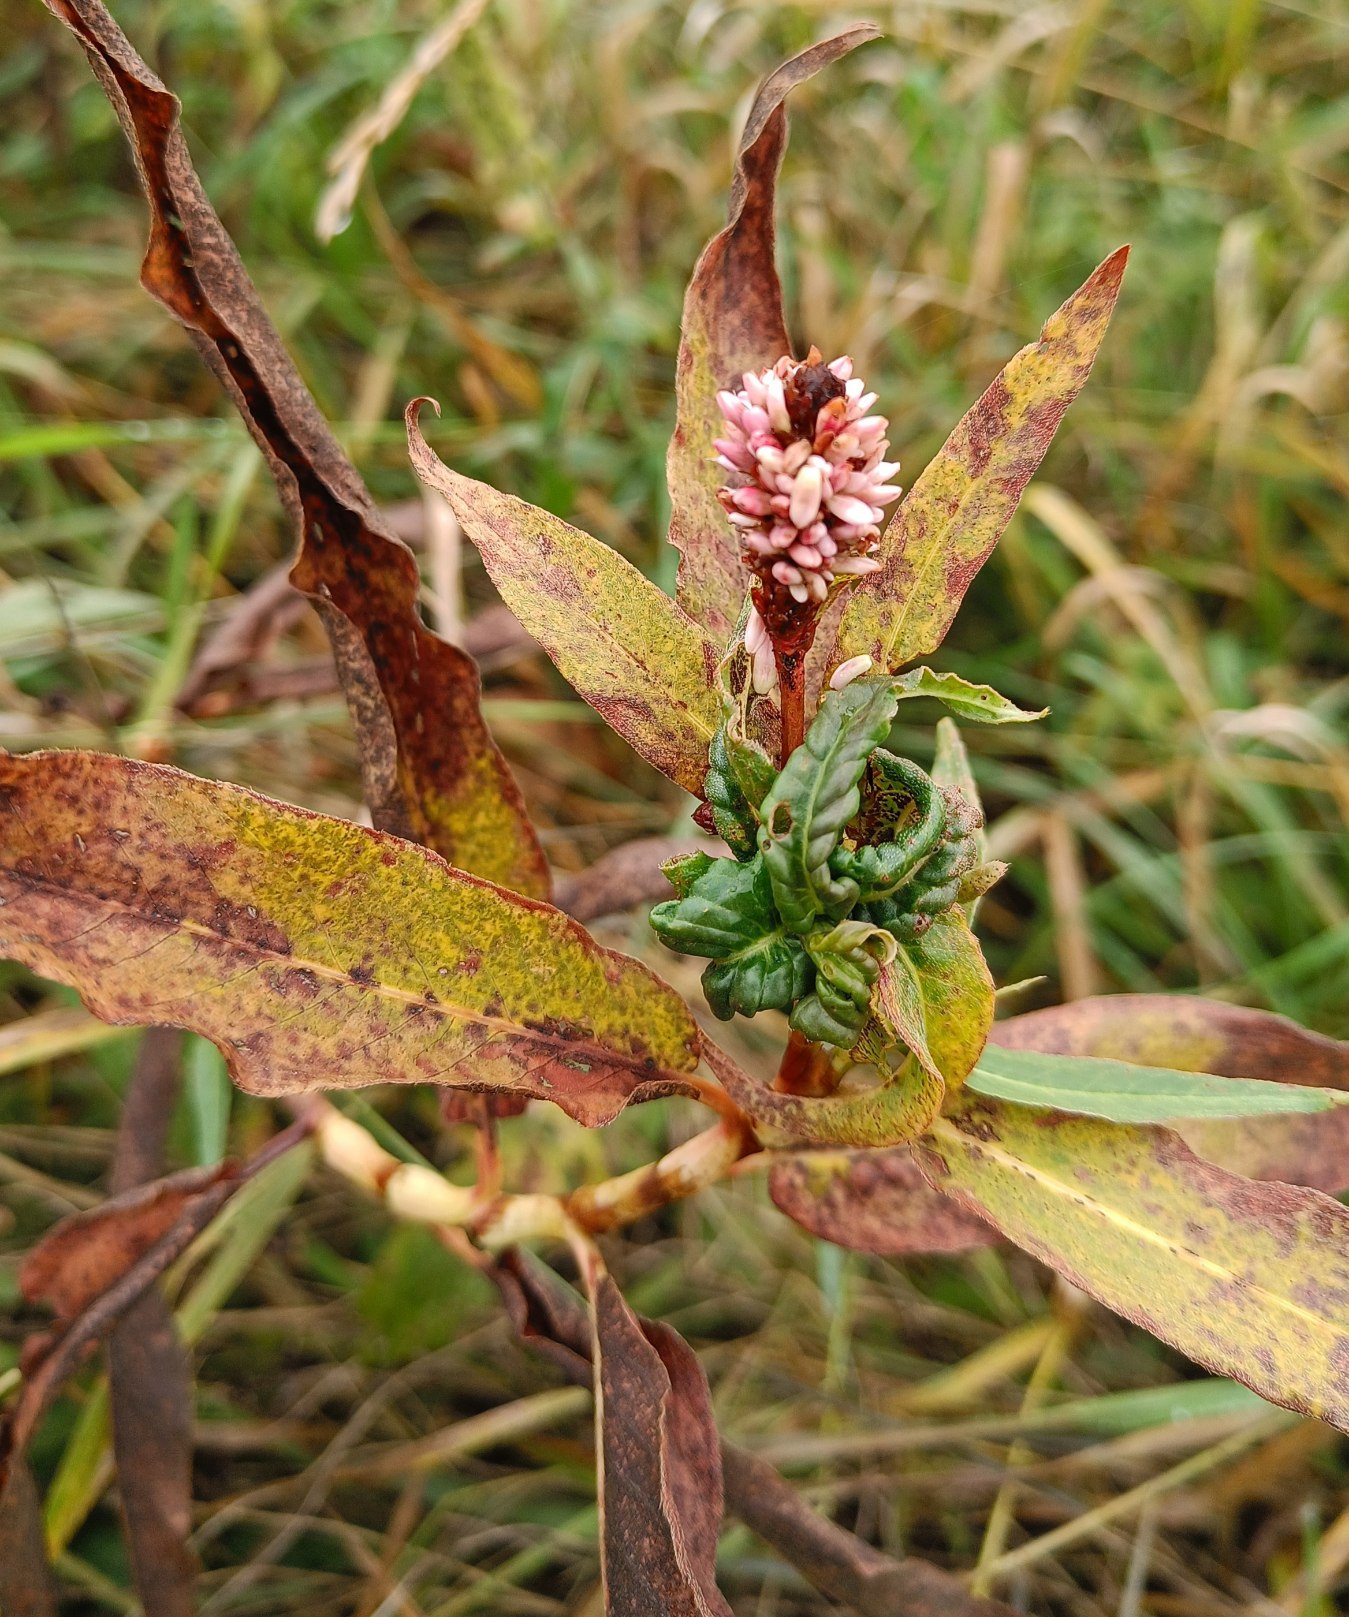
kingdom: Plantae
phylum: Tracheophyta
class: Magnoliopsida
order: Caryophyllales
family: Polygonaceae
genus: Persicaria
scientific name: Persicaria
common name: Pileurt (Persicaria-slægten)
